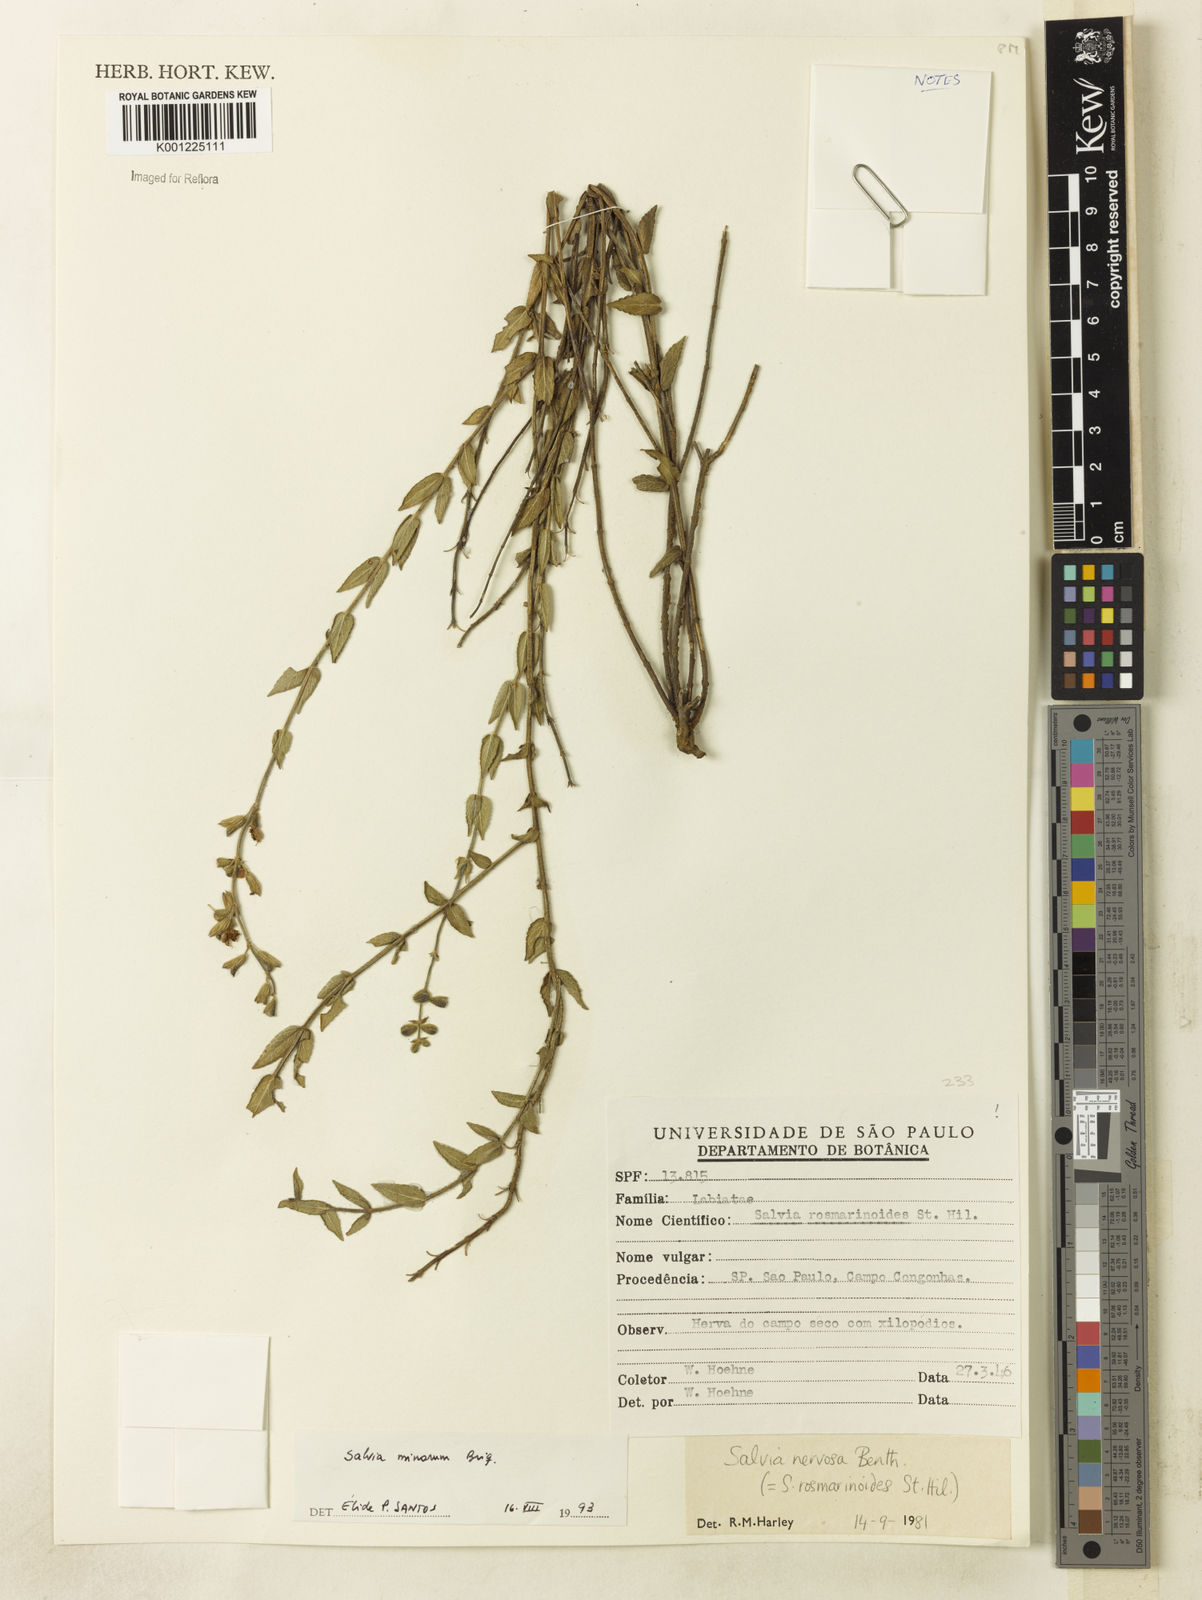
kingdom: Plantae
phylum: Tracheophyta
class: Magnoliopsida
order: Lamiales
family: Lamiaceae
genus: Salvia
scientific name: Salvia minarum
